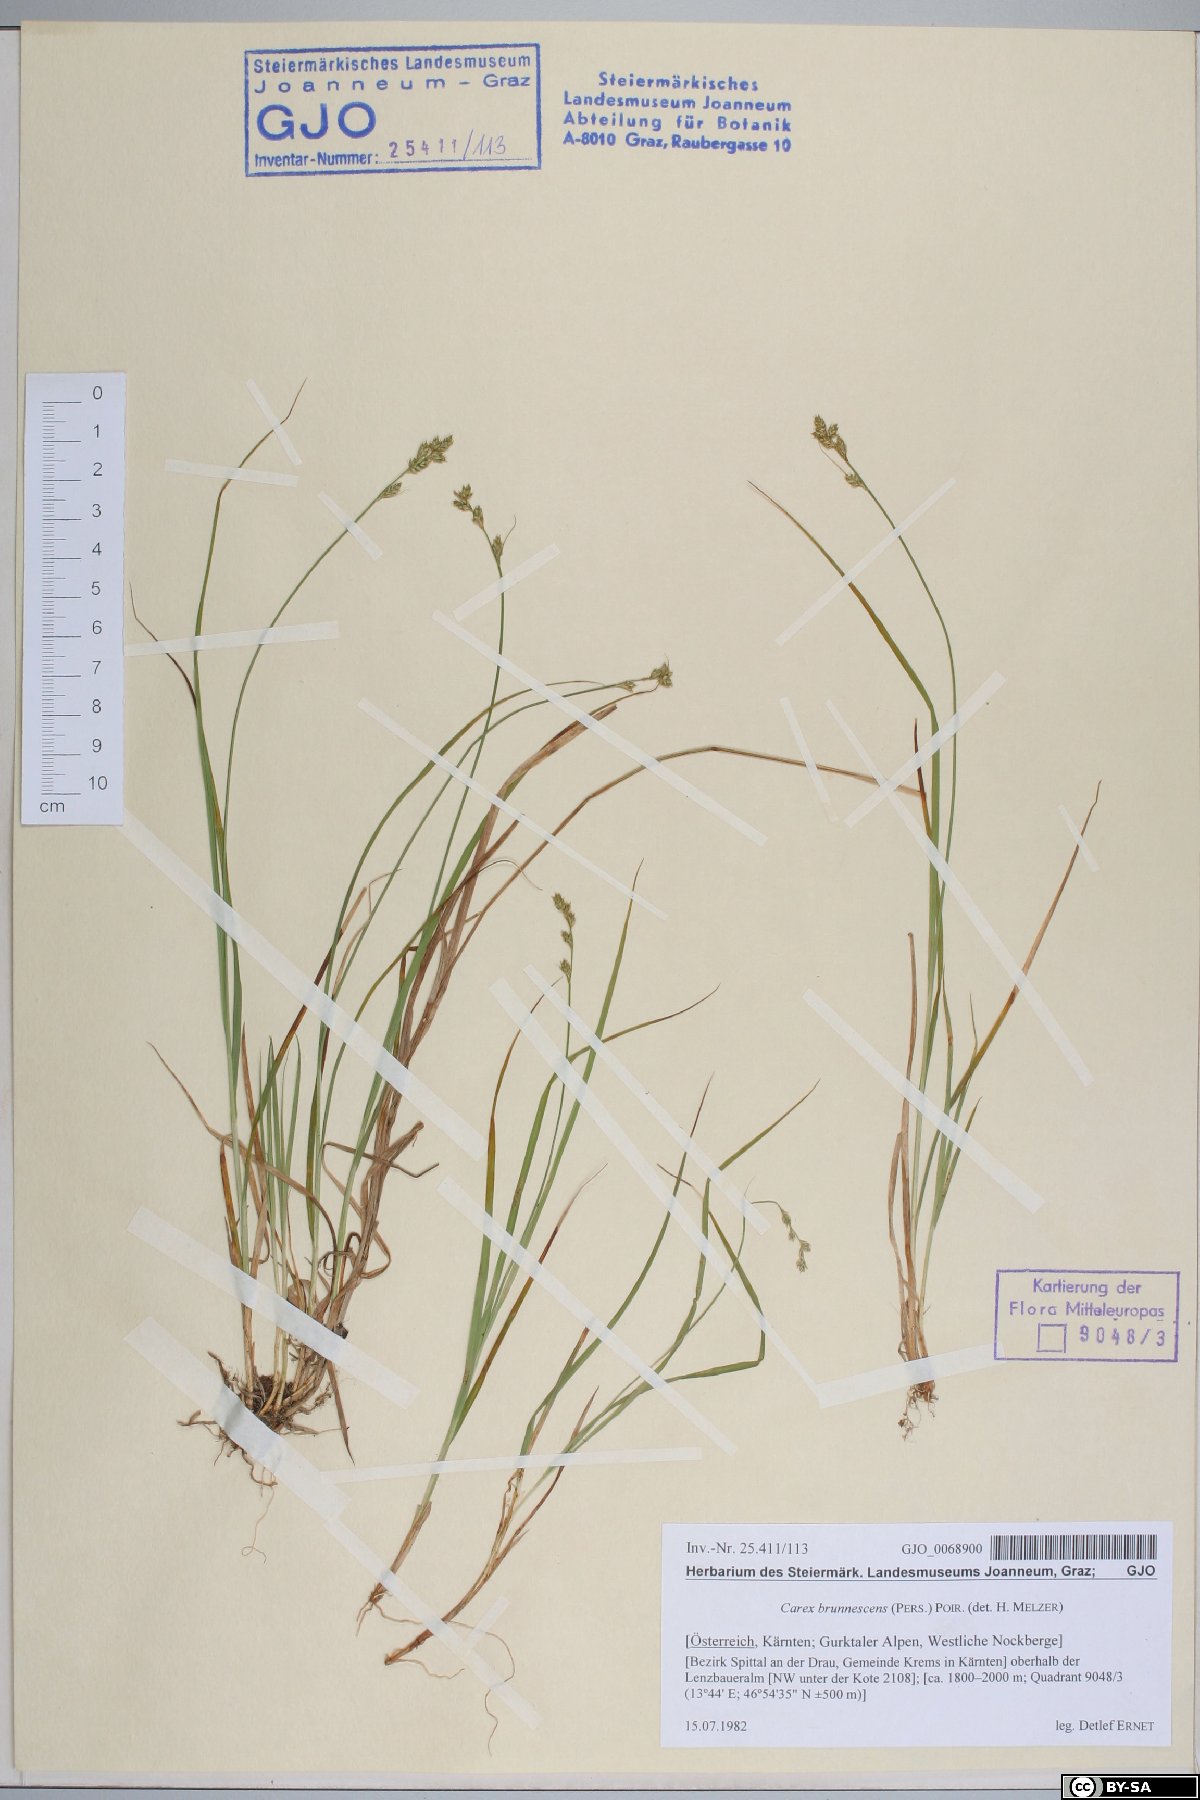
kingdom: Plantae
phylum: Tracheophyta
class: Liliopsida
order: Poales
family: Cyperaceae
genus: Carex
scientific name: Carex brunnescens
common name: Brown sedge
